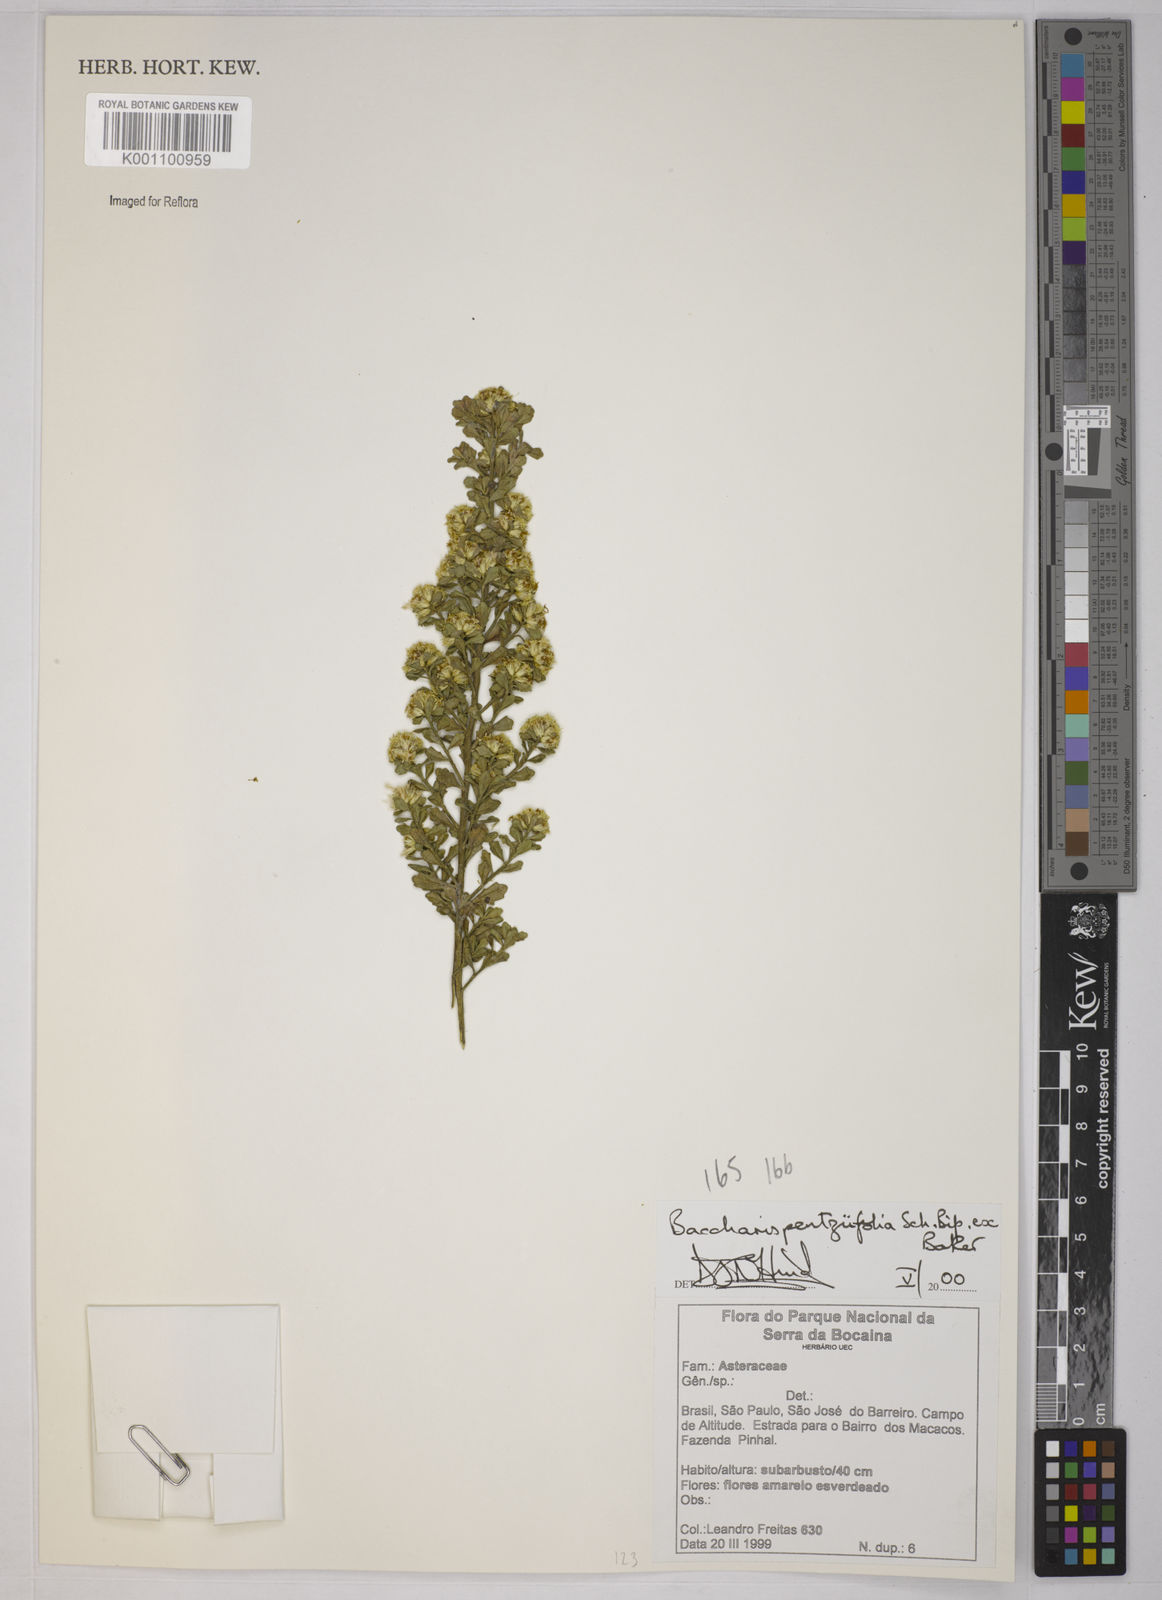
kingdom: Plantae
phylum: Tracheophyta
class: Magnoliopsida
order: Asterales
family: Asteraceae
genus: Baccharis
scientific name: Baccharis pentziifolia
